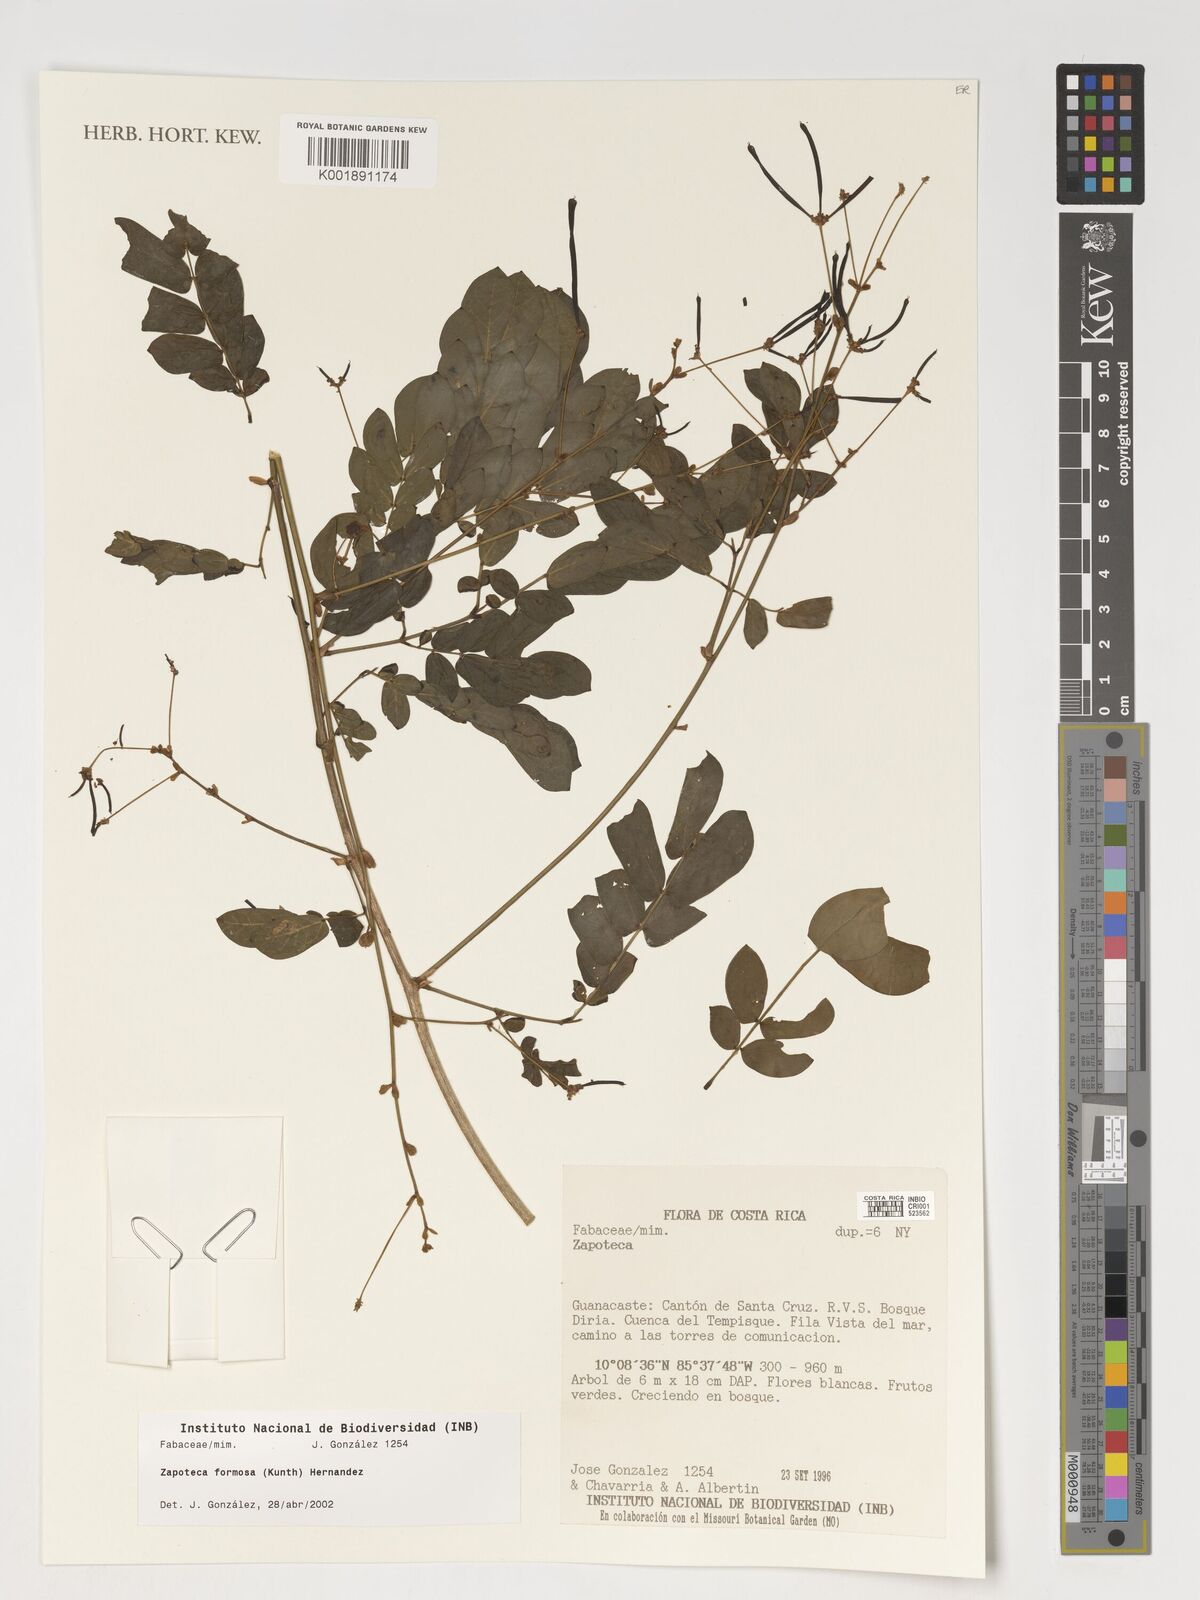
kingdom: Plantae
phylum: Tracheophyta
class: Magnoliopsida
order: Fabales
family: Fabaceae
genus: Zapoteca
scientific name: Zapoteca formosa
